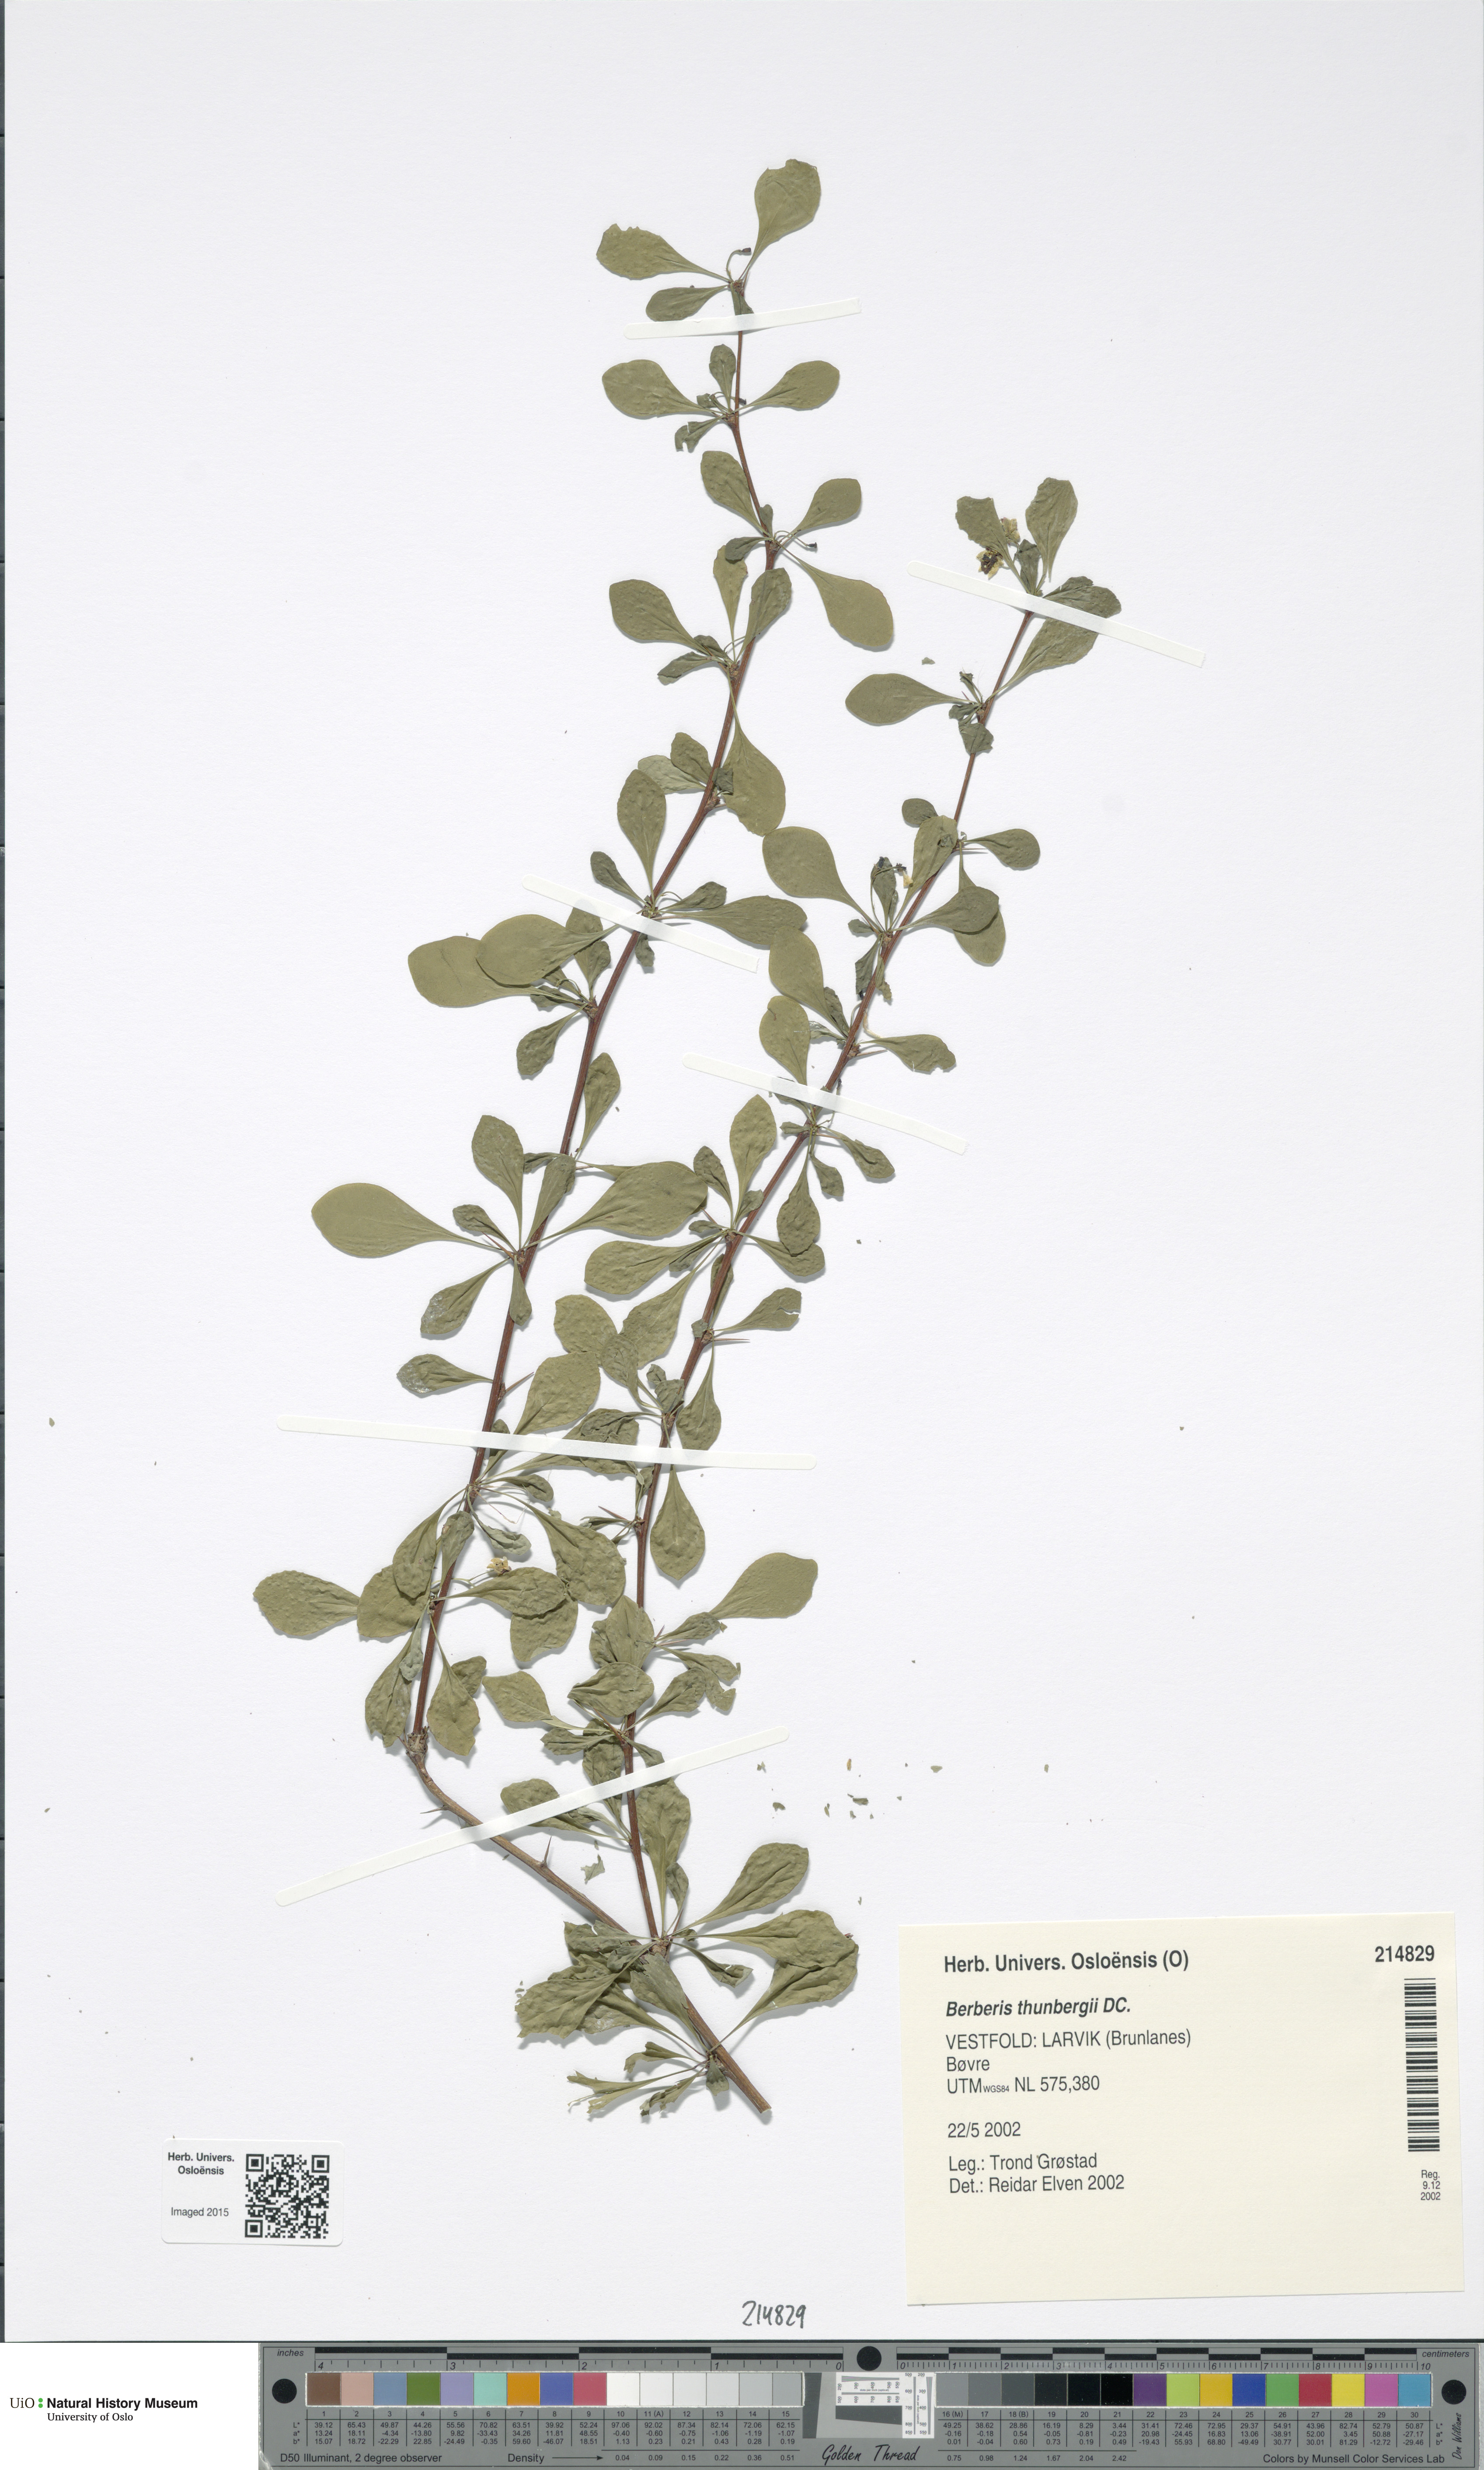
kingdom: Plantae
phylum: Tracheophyta
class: Magnoliopsida
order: Ranunculales
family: Berberidaceae
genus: Berberis
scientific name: Berberis thunbergii
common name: Japanese barberry
